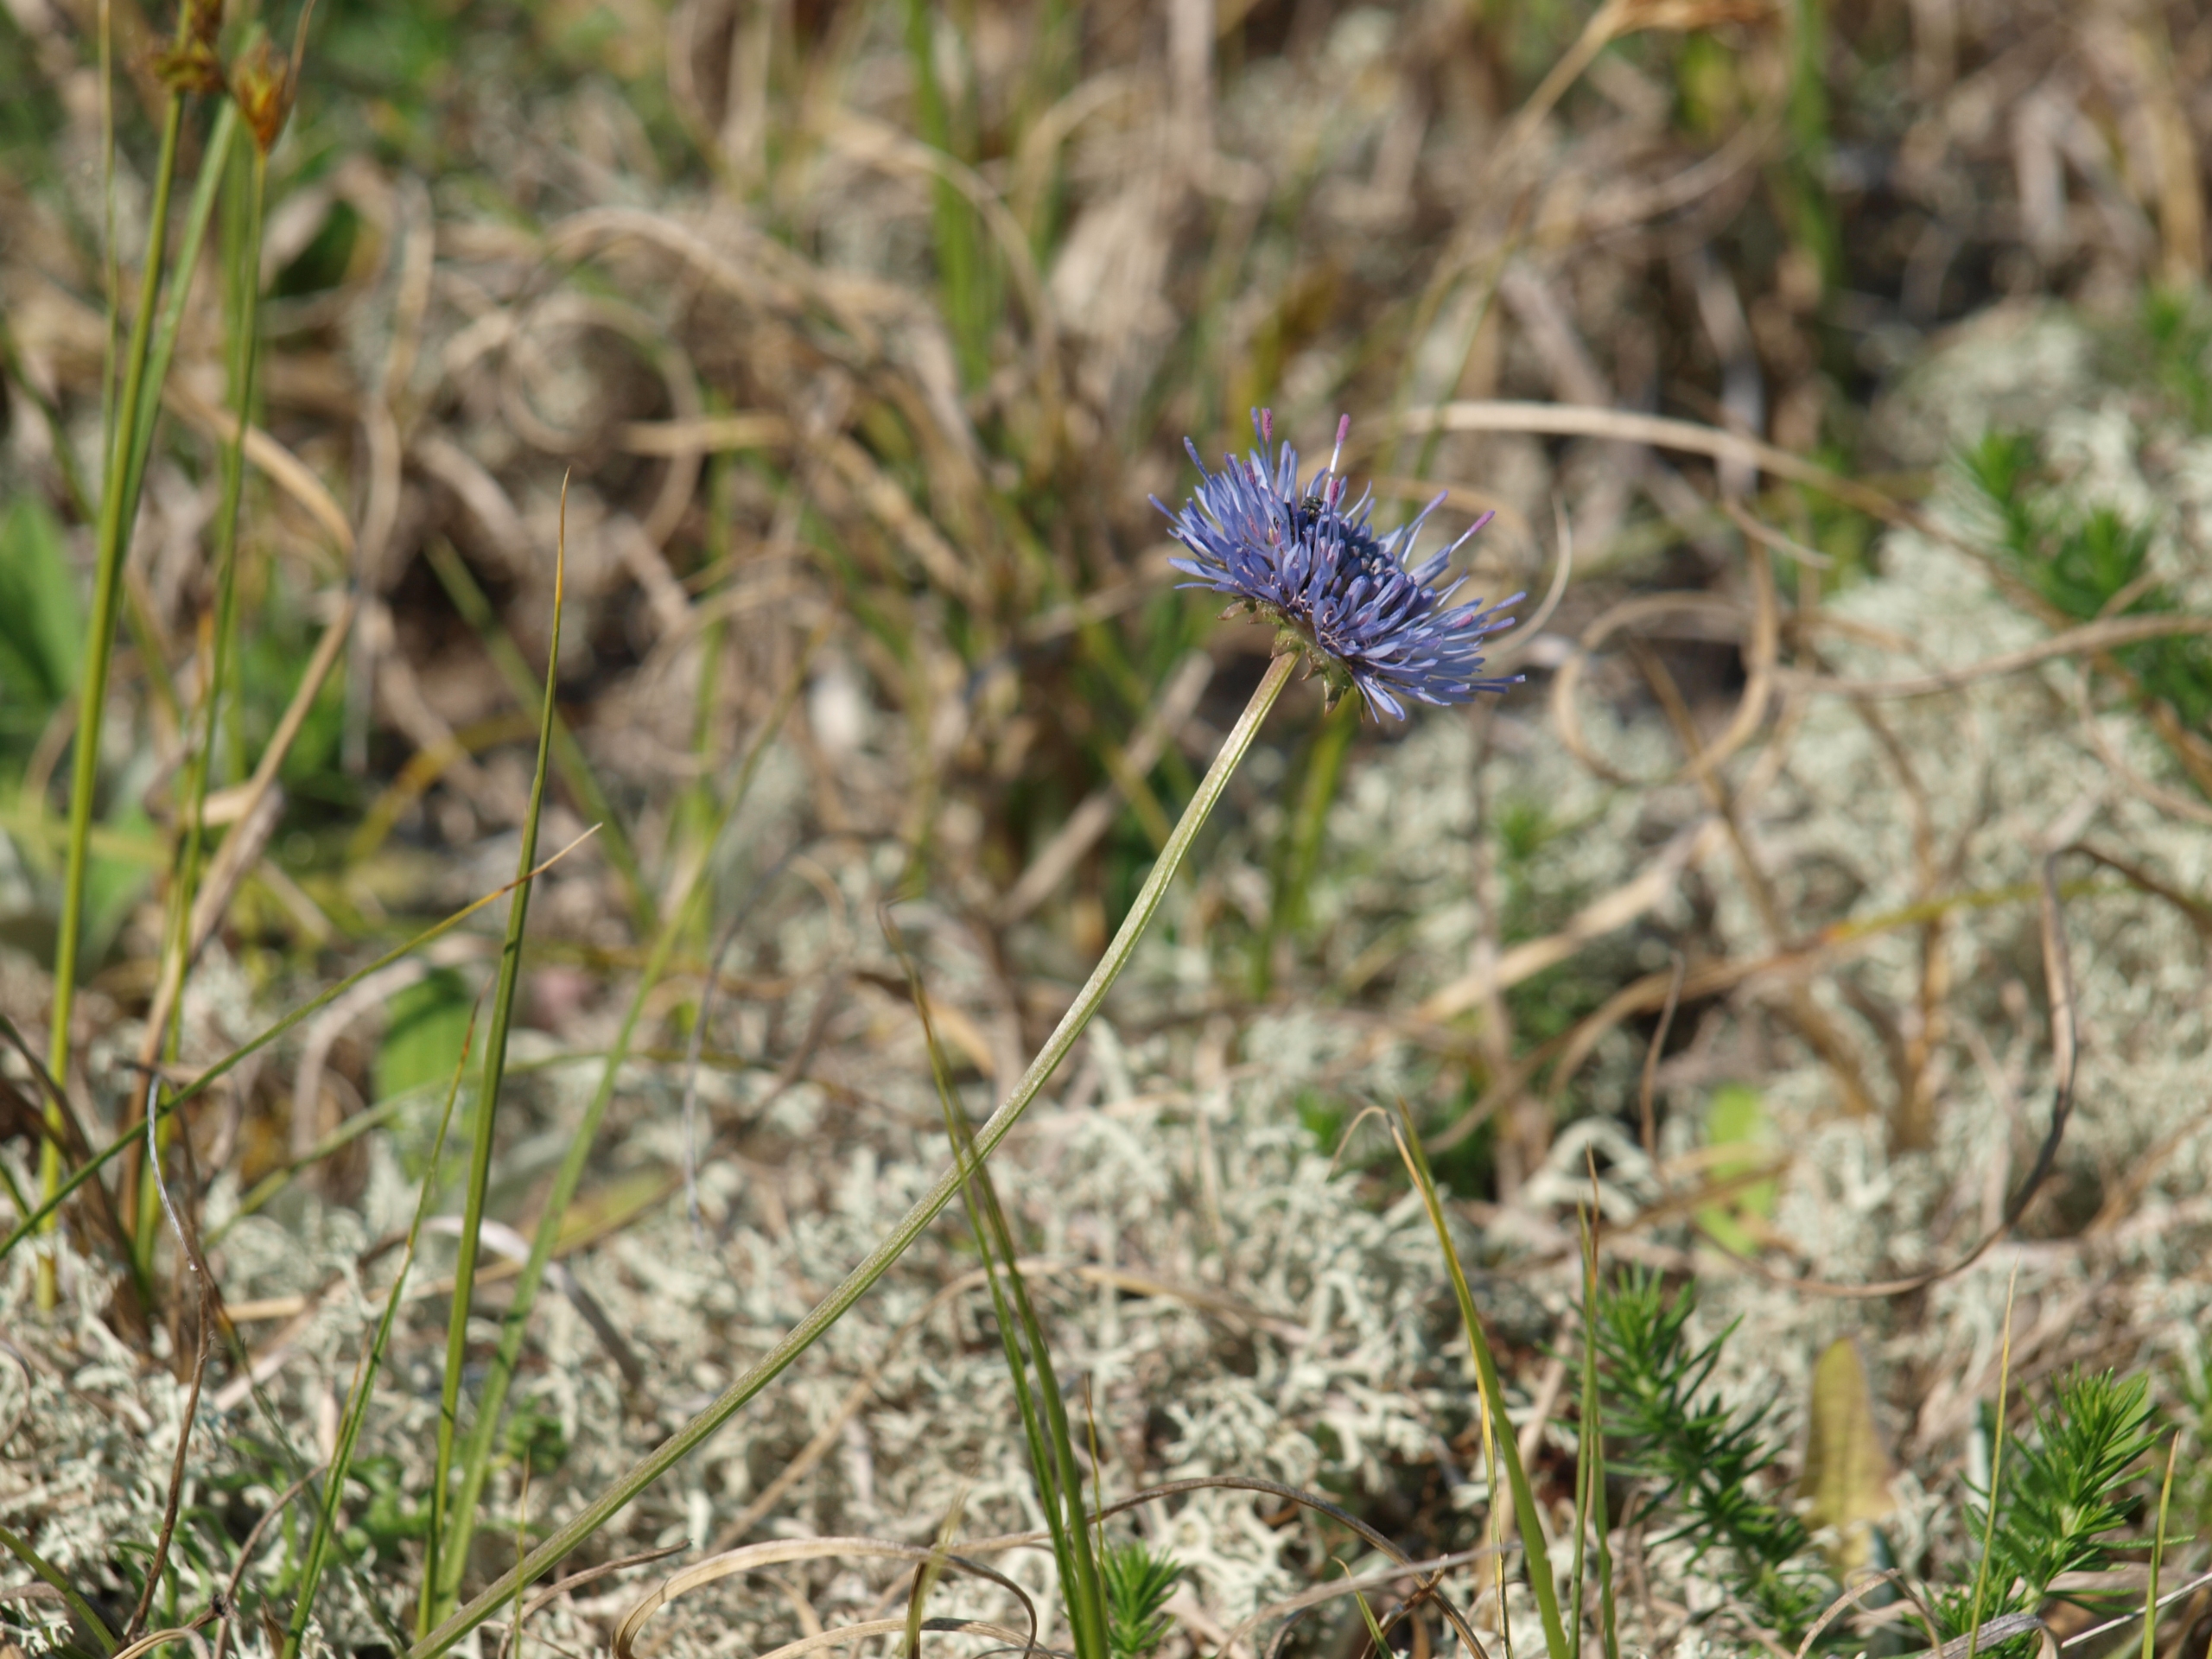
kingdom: Plantae
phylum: Tracheophyta
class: Magnoliopsida
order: Asterales
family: Campanulaceae
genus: Jasione
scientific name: Jasione montana
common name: Blåmunke
